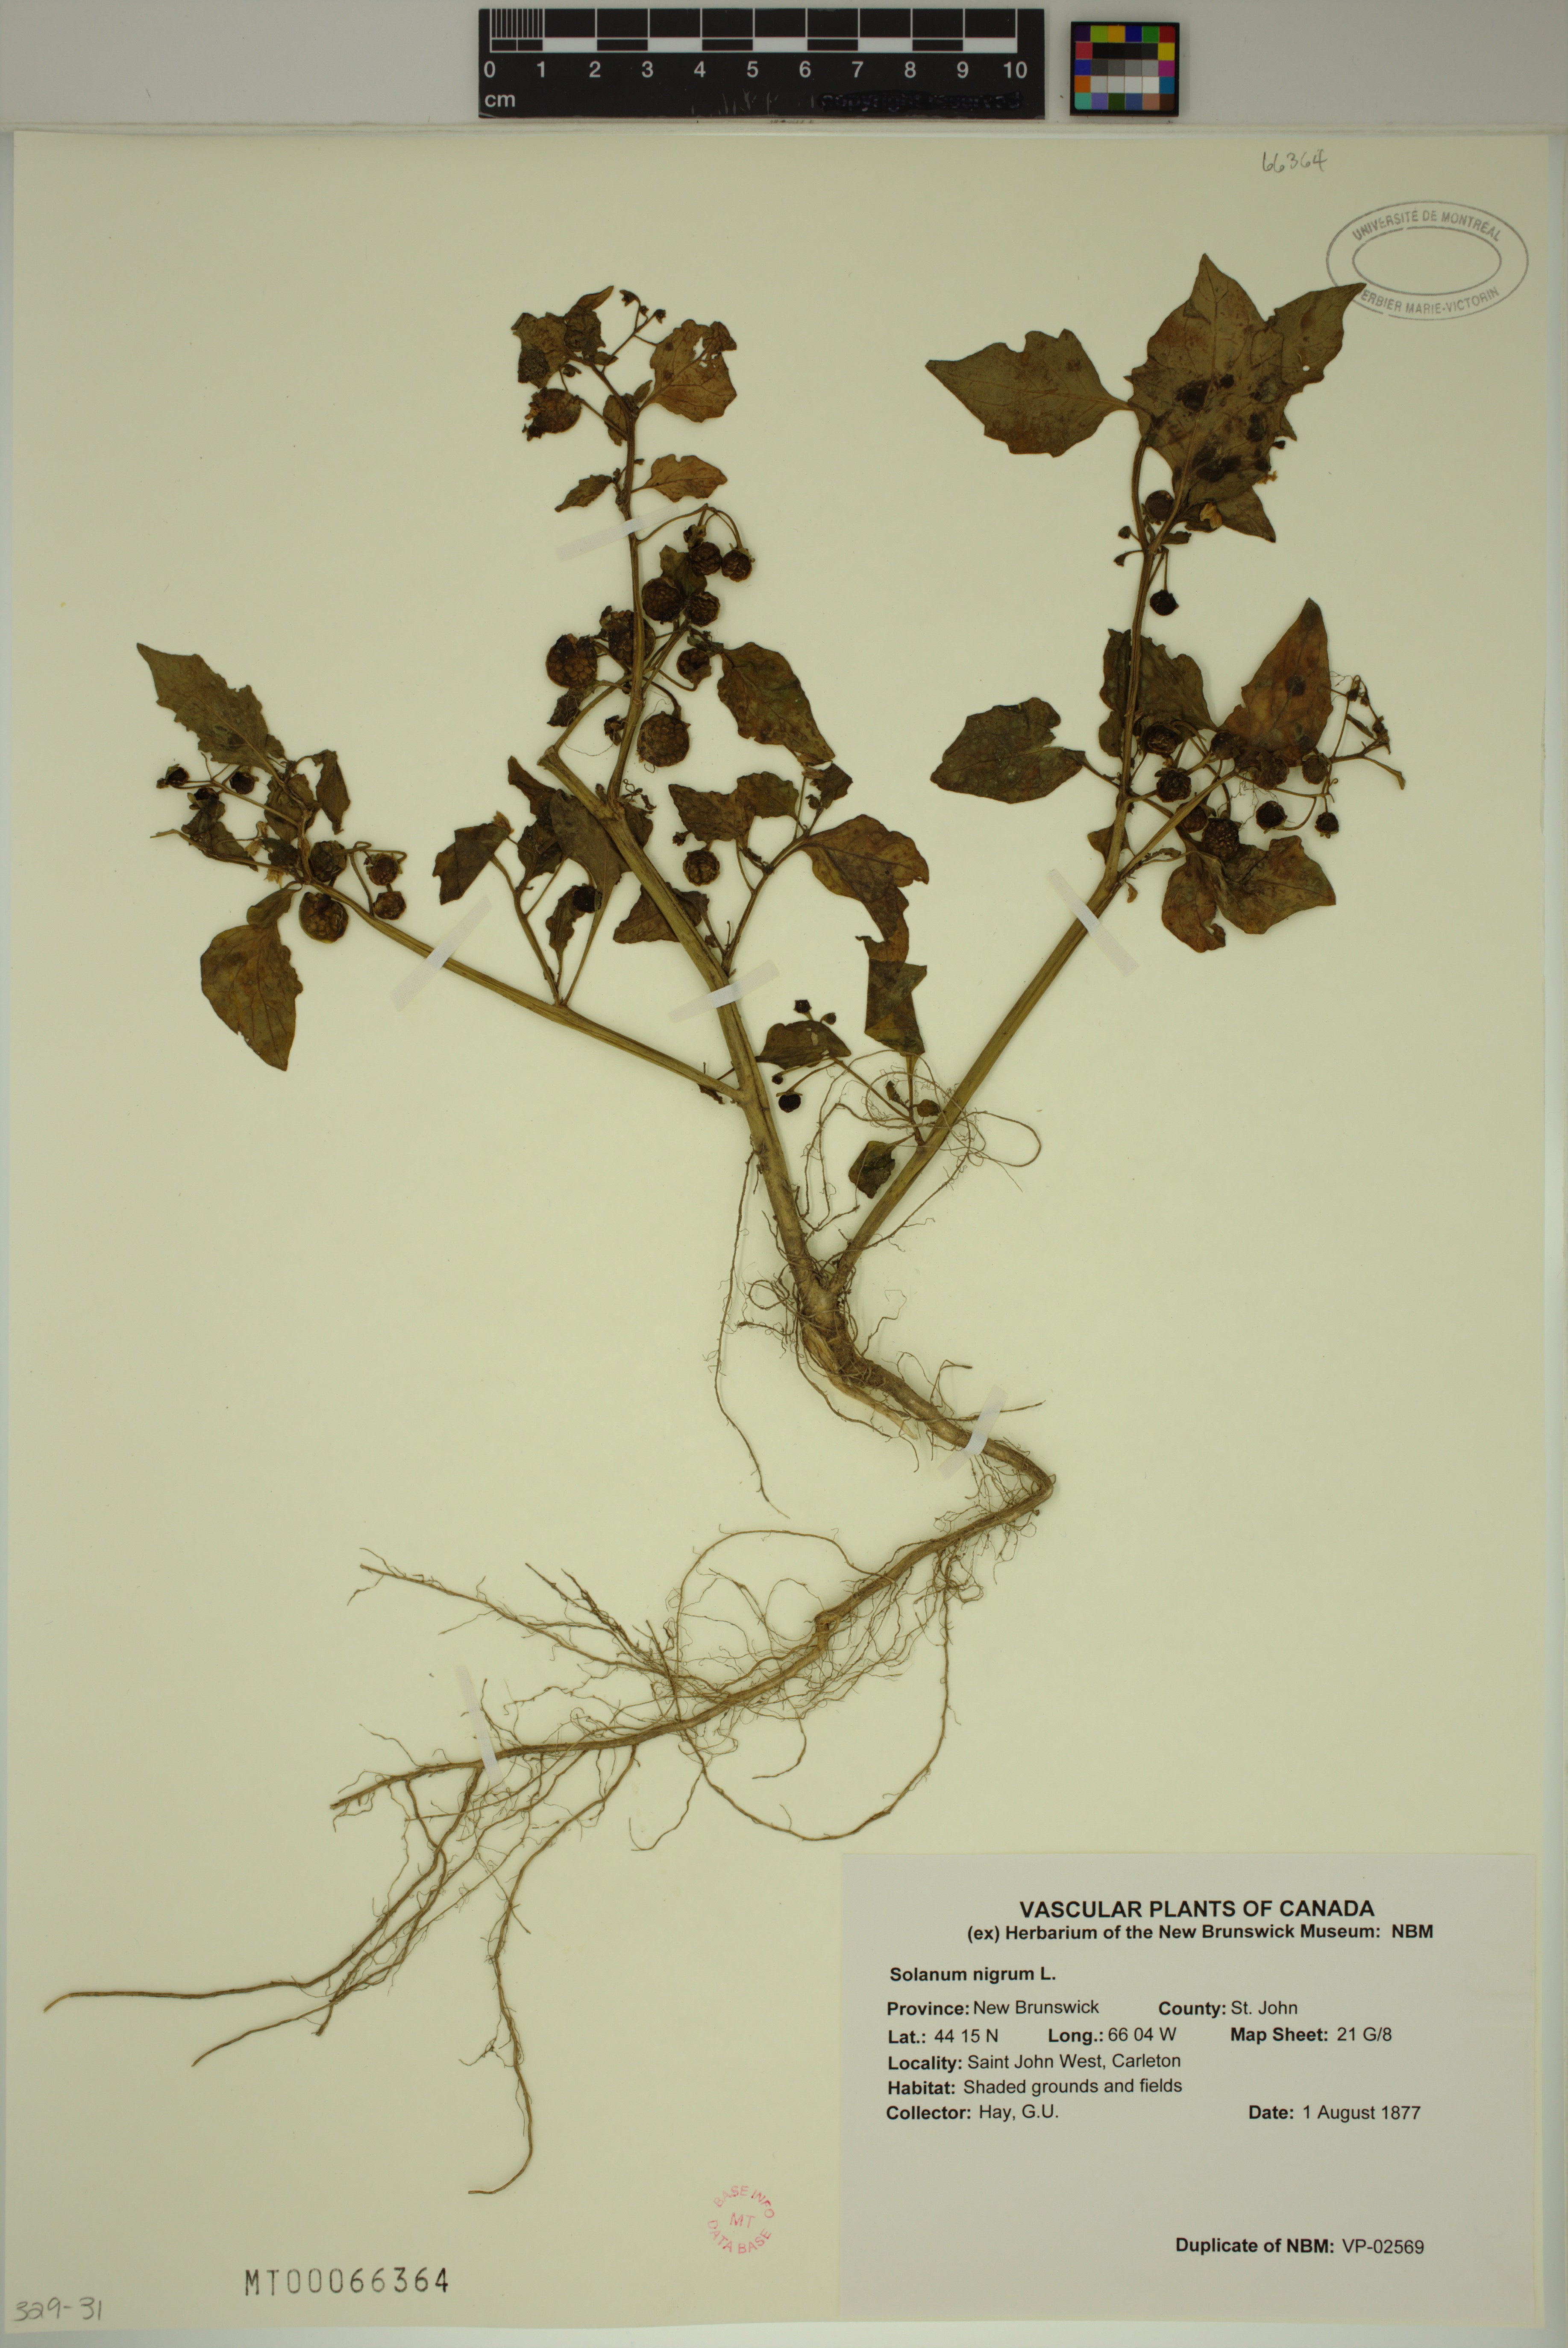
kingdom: Plantae
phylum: Tracheophyta
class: Magnoliopsida
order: Solanales
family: Solanaceae
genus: Solanum
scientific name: Solanum nigrum
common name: Black nightshade
